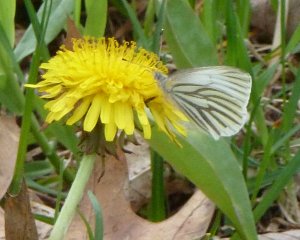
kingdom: Animalia
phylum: Arthropoda
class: Insecta
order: Lepidoptera
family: Pieridae
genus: Pieris
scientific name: Pieris oleracea
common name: Mustard White
